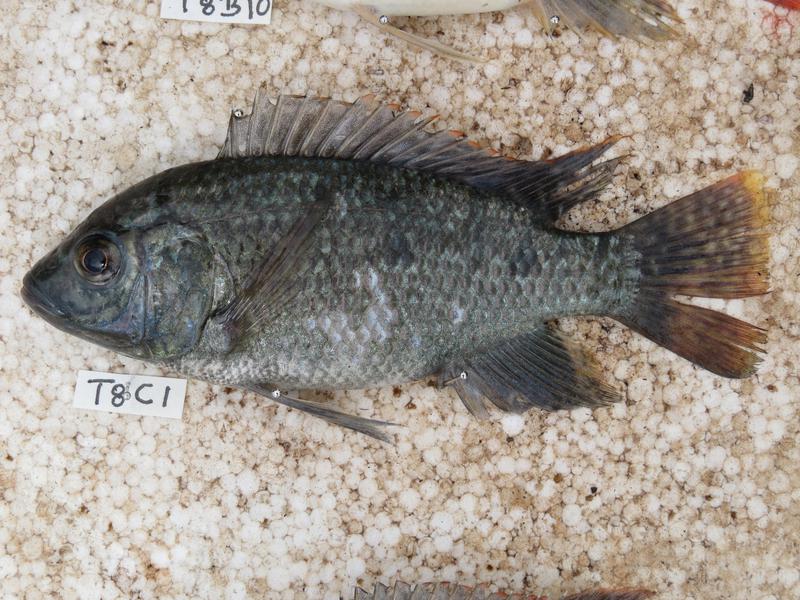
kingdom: Animalia
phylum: Chordata
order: Perciformes
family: Cichlidae
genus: Oreochromis
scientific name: Oreochromis shiranus
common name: Chilwa tilapia
